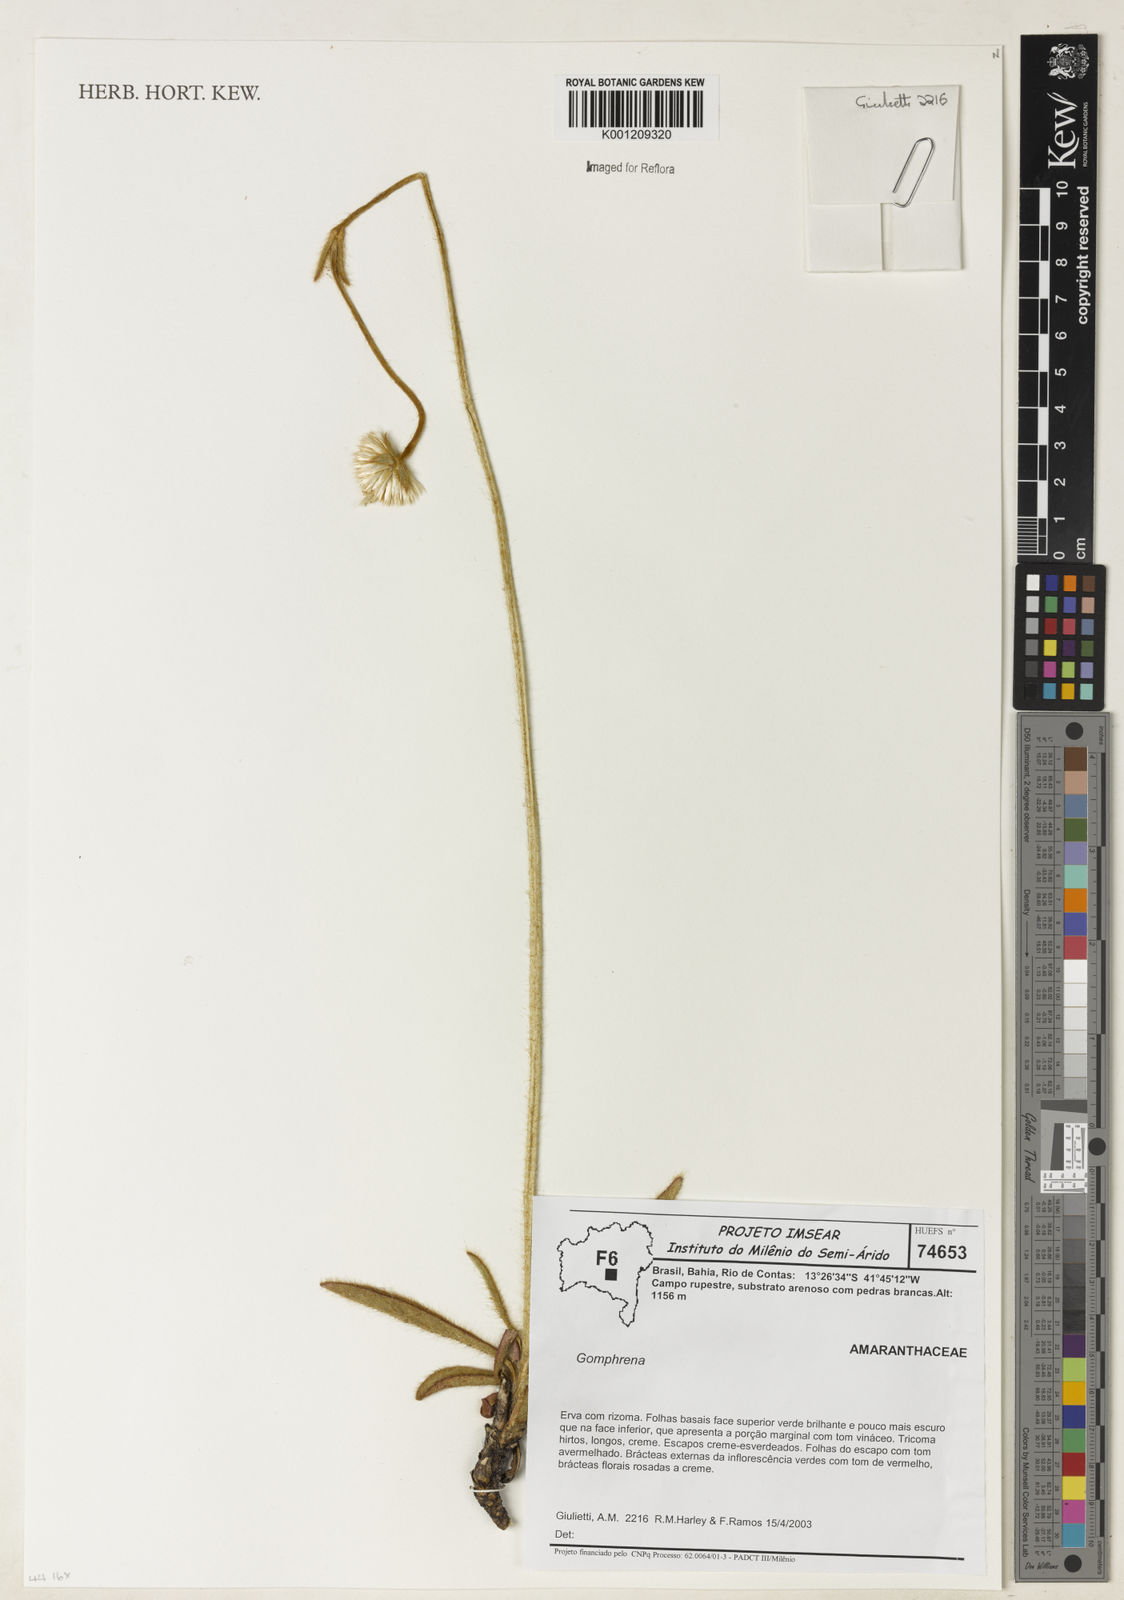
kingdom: Plantae
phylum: Tracheophyta
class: Magnoliopsida
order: Caryophyllales
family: Amaranthaceae
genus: Gomphrena
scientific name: Gomphrena
